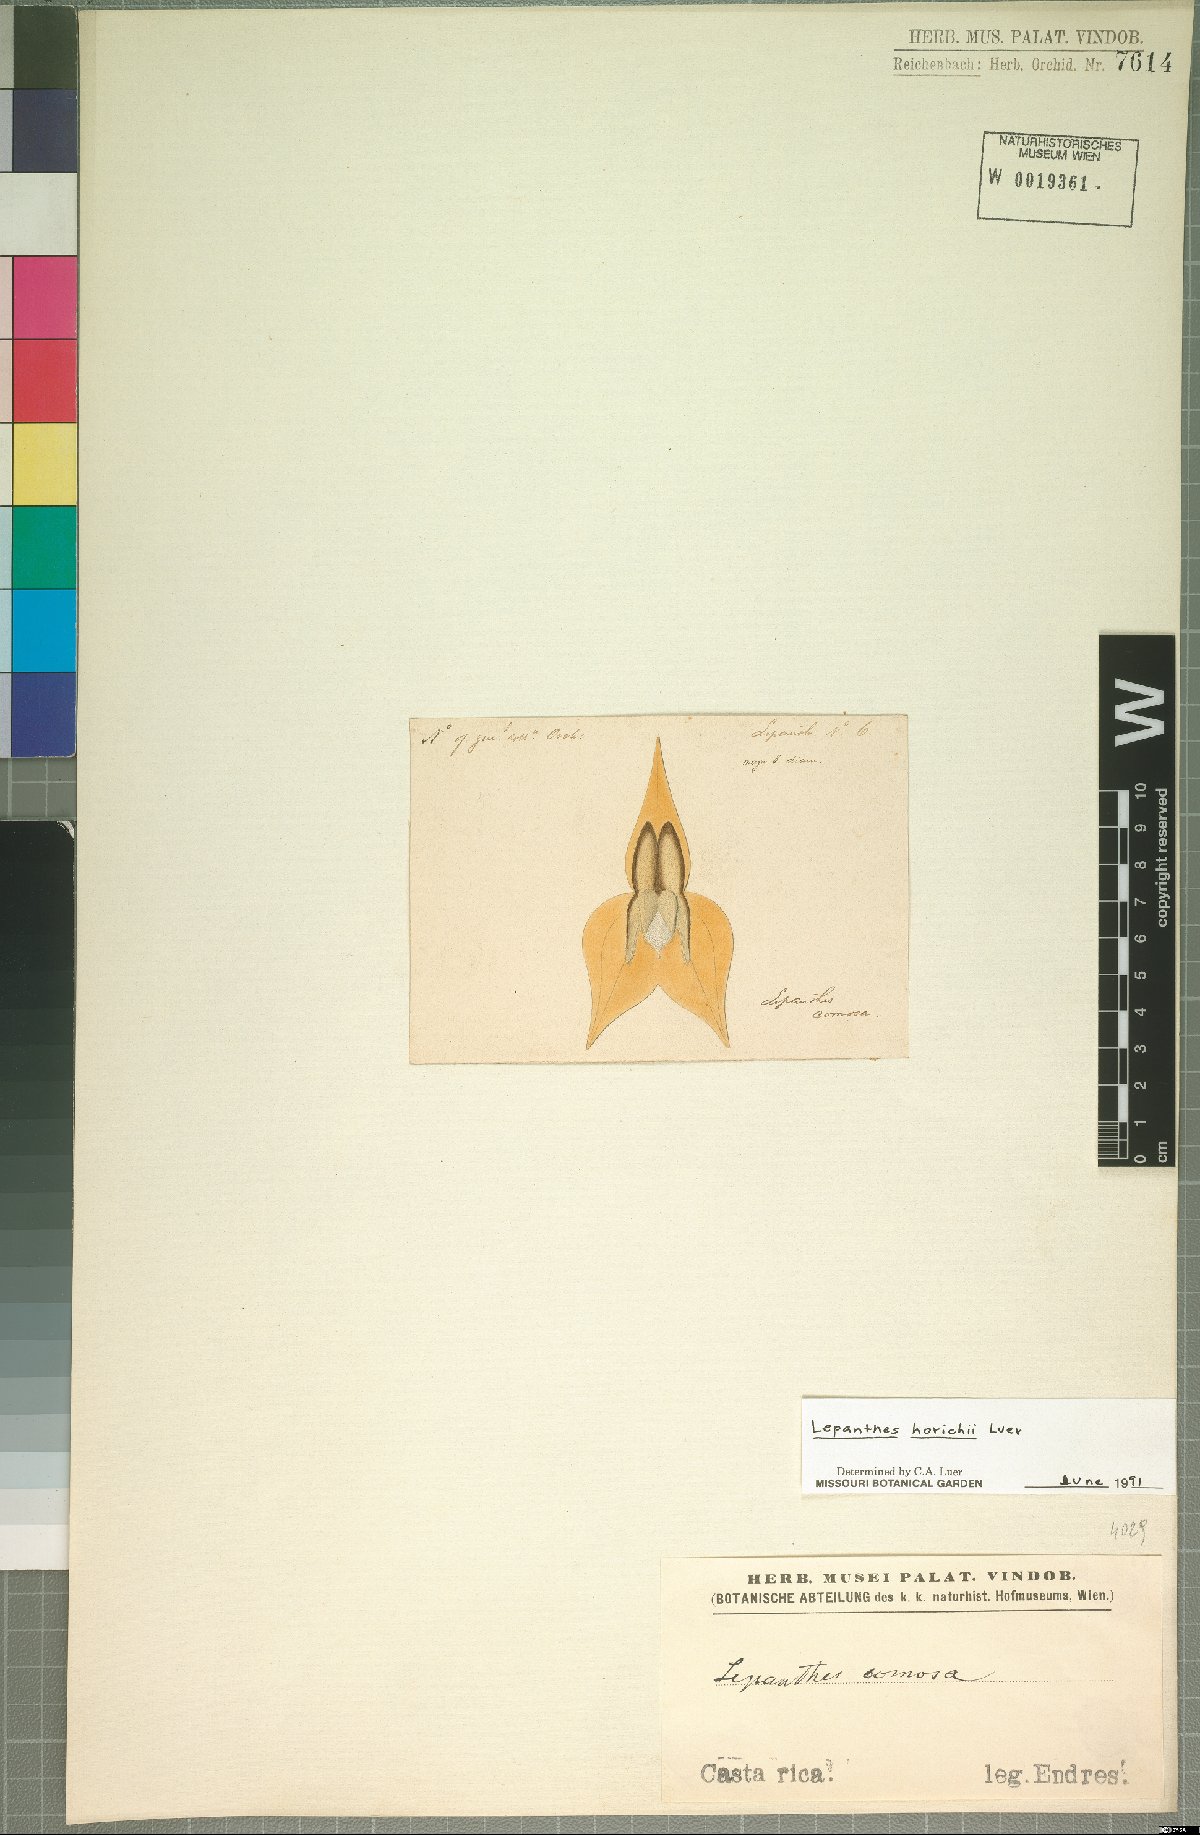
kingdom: Plantae
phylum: Tracheophyta
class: Liliopsida
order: Asparagales
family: Orchidaceae
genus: Lepanthes
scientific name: Lepanthes horichii
